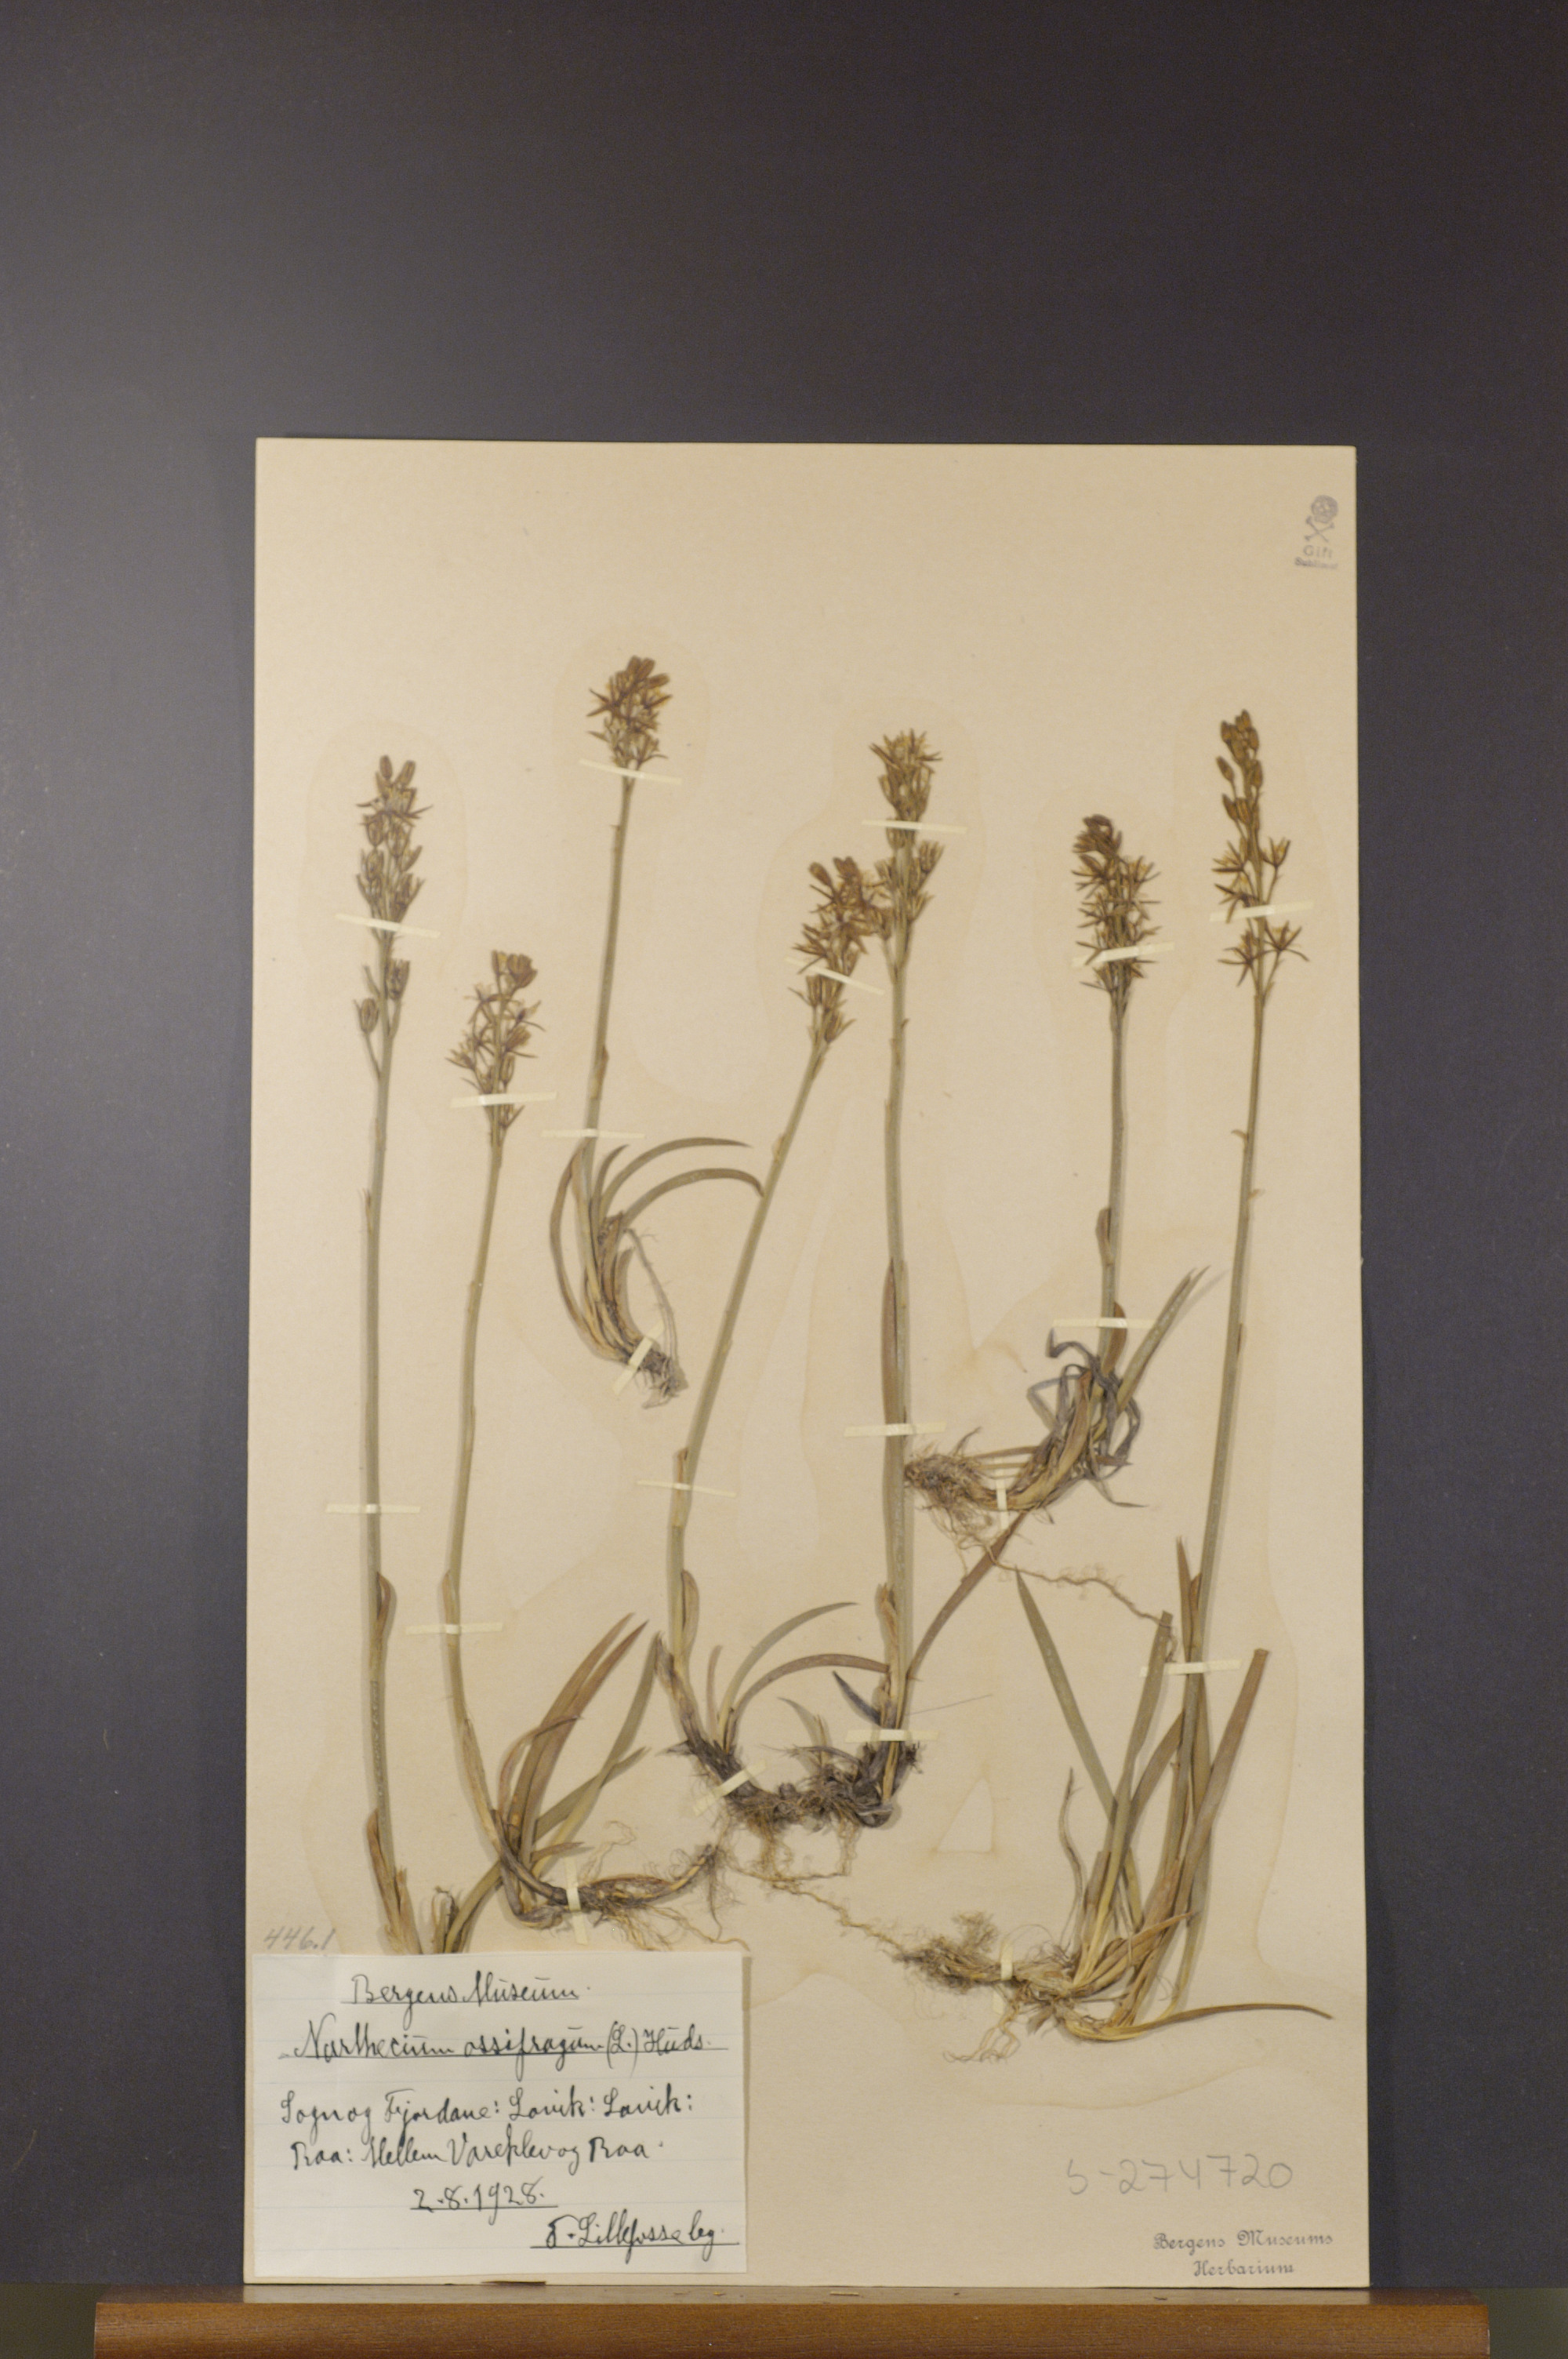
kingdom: Plantae
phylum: Tracheophyta
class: Liliopsida
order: Dioscoreales
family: Nartheciaceae
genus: Narthecium
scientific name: Narthecium ossifragum
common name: Bog asphodel
